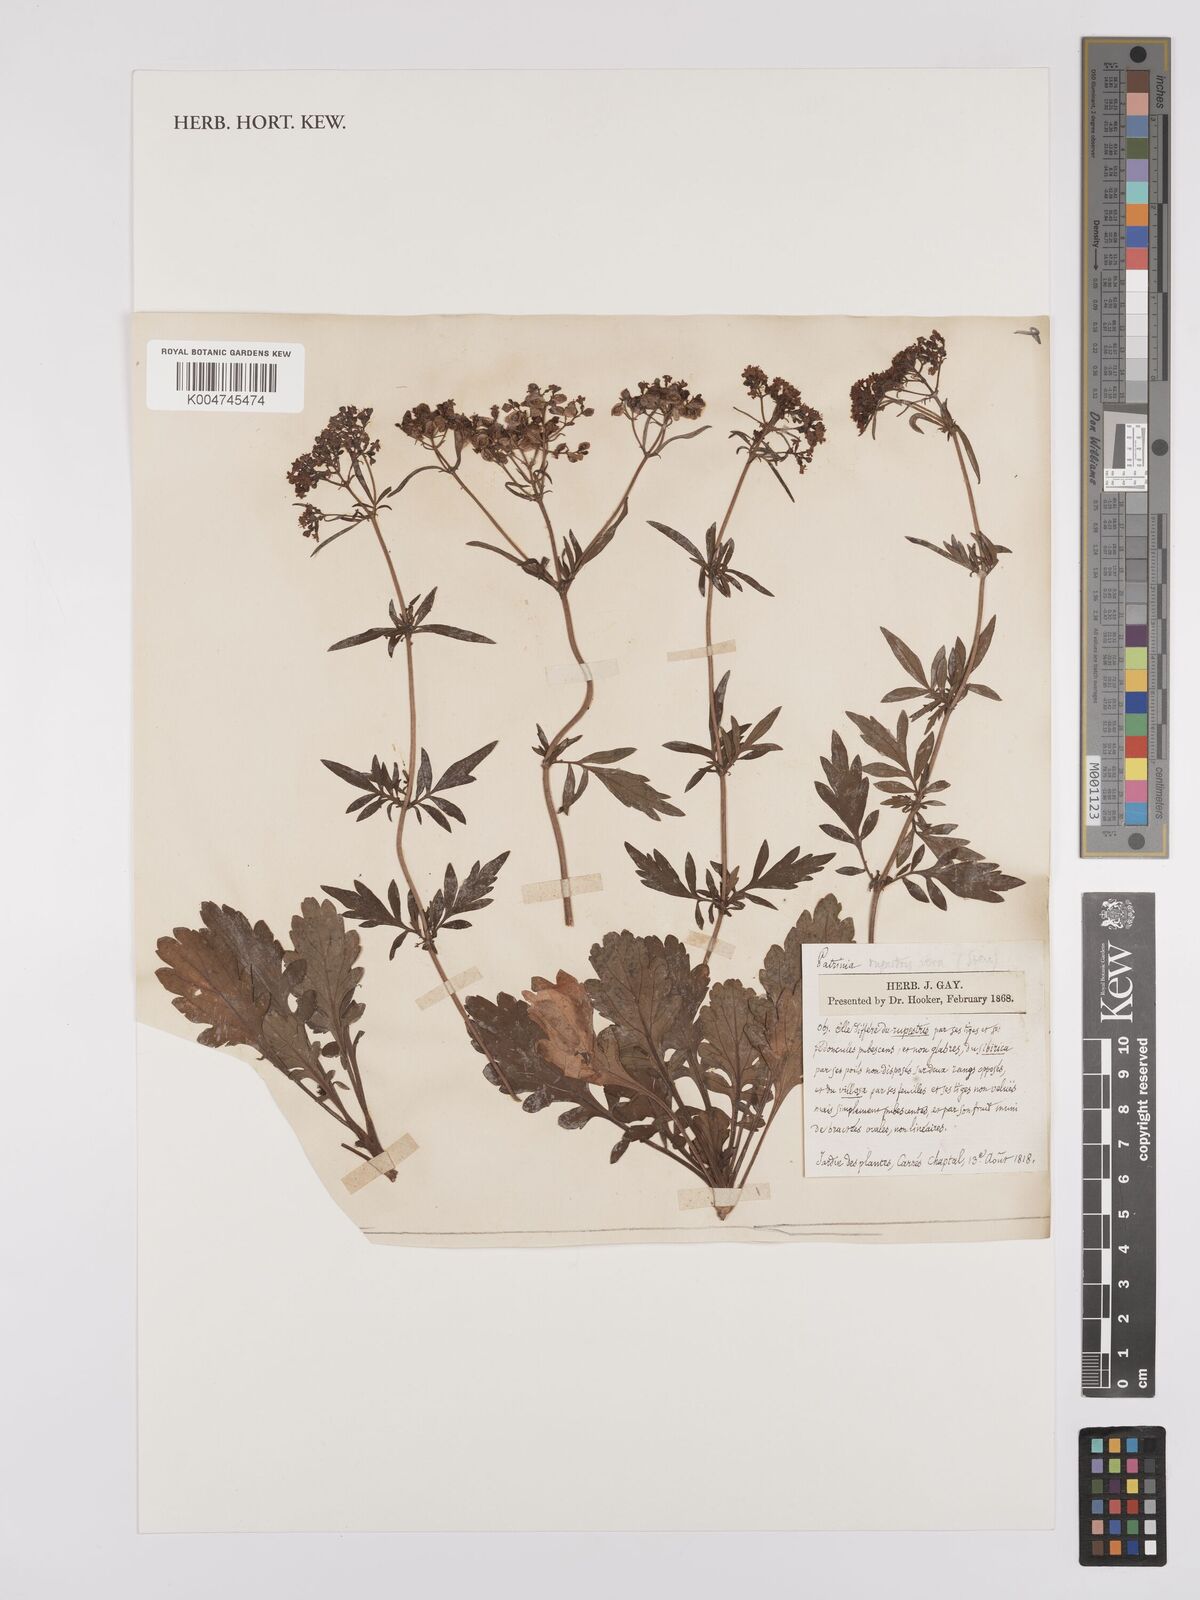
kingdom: Plantae
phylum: Tracheophyta
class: Magnoliopsida
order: Dipsacales
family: Caprifoliaceae
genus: Patrinia
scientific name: Patrinia rupestris
